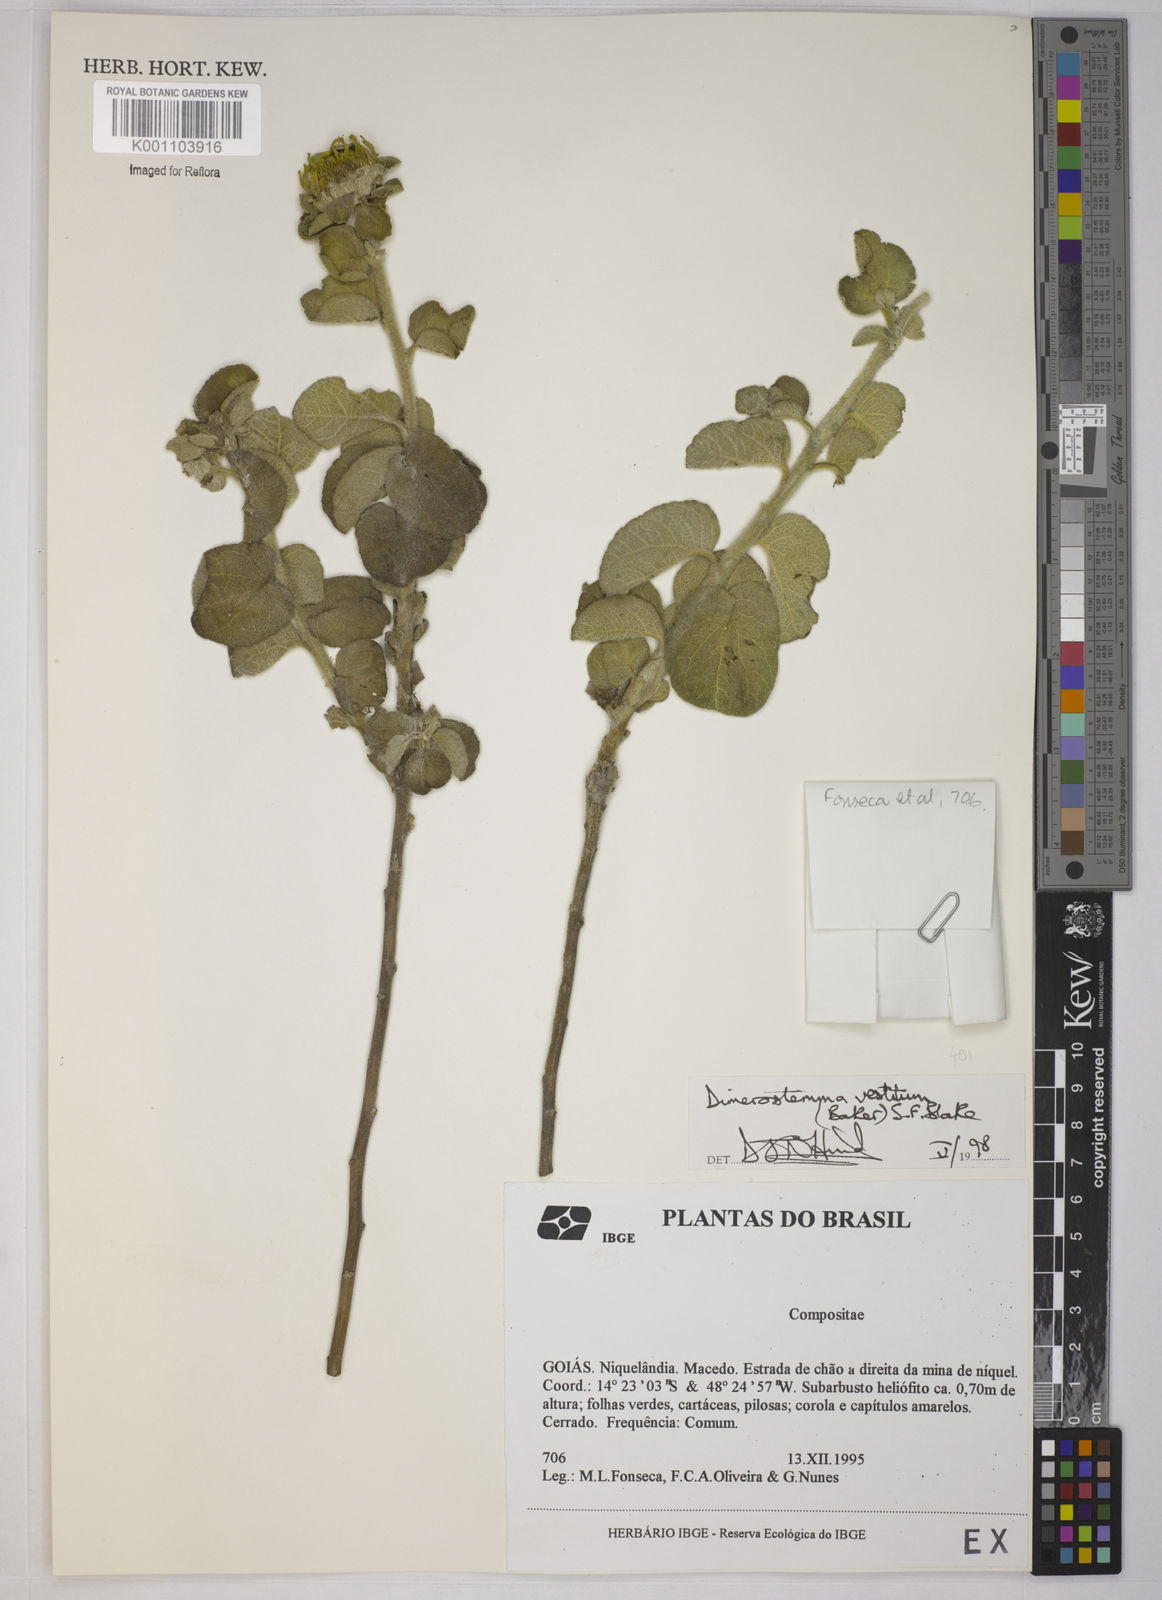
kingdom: Plantae
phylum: Tracheophyta
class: Magnoliopsida
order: Asterales
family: Asteraceae
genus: Dimerostemma
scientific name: Dimerostemma vestitum
